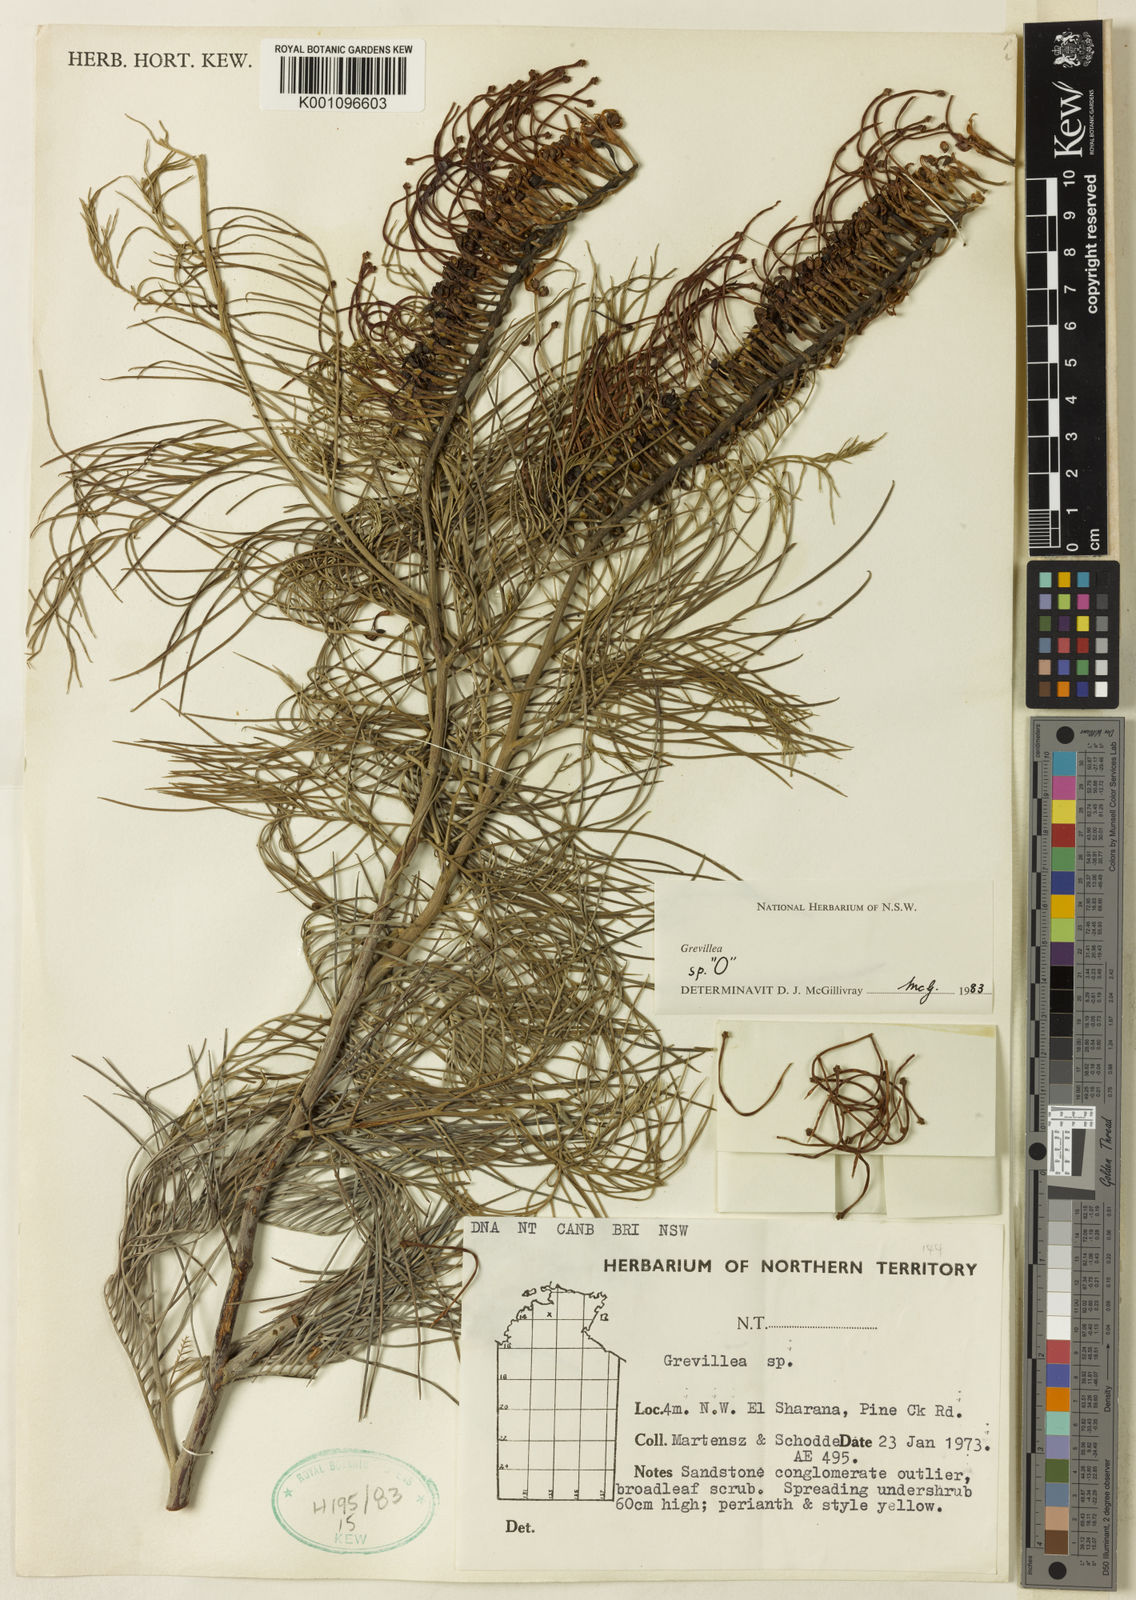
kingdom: Plantae
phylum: Tracheophyta
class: Magnoliopsida
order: Proteales
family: Proteaceae
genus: Grevillea
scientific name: Grevillea formosa
